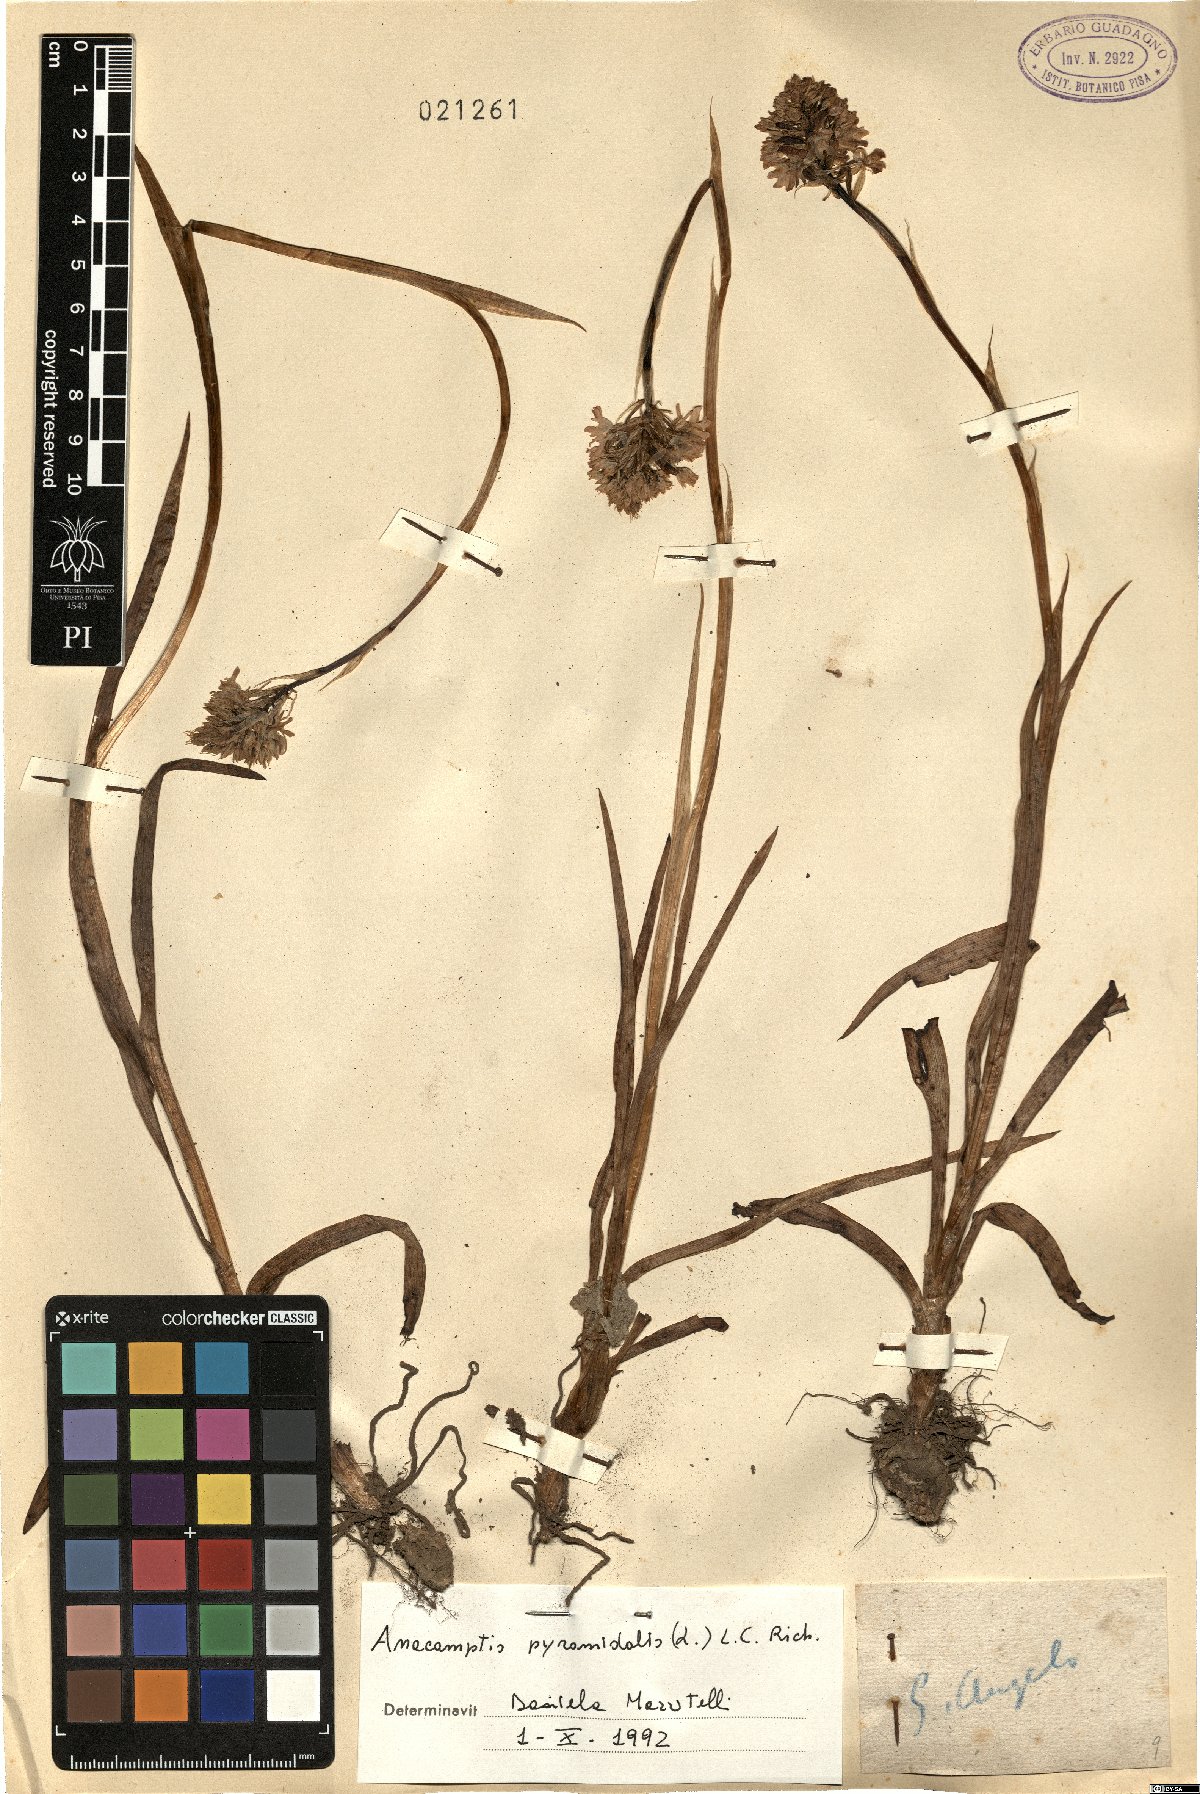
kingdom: Plantae
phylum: Tracheophyta
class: Liliopsida
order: Asparagales
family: Orchidaceae
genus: Anacamptis
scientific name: Anacamptis pyramidalis
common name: Pyramidal orchid
